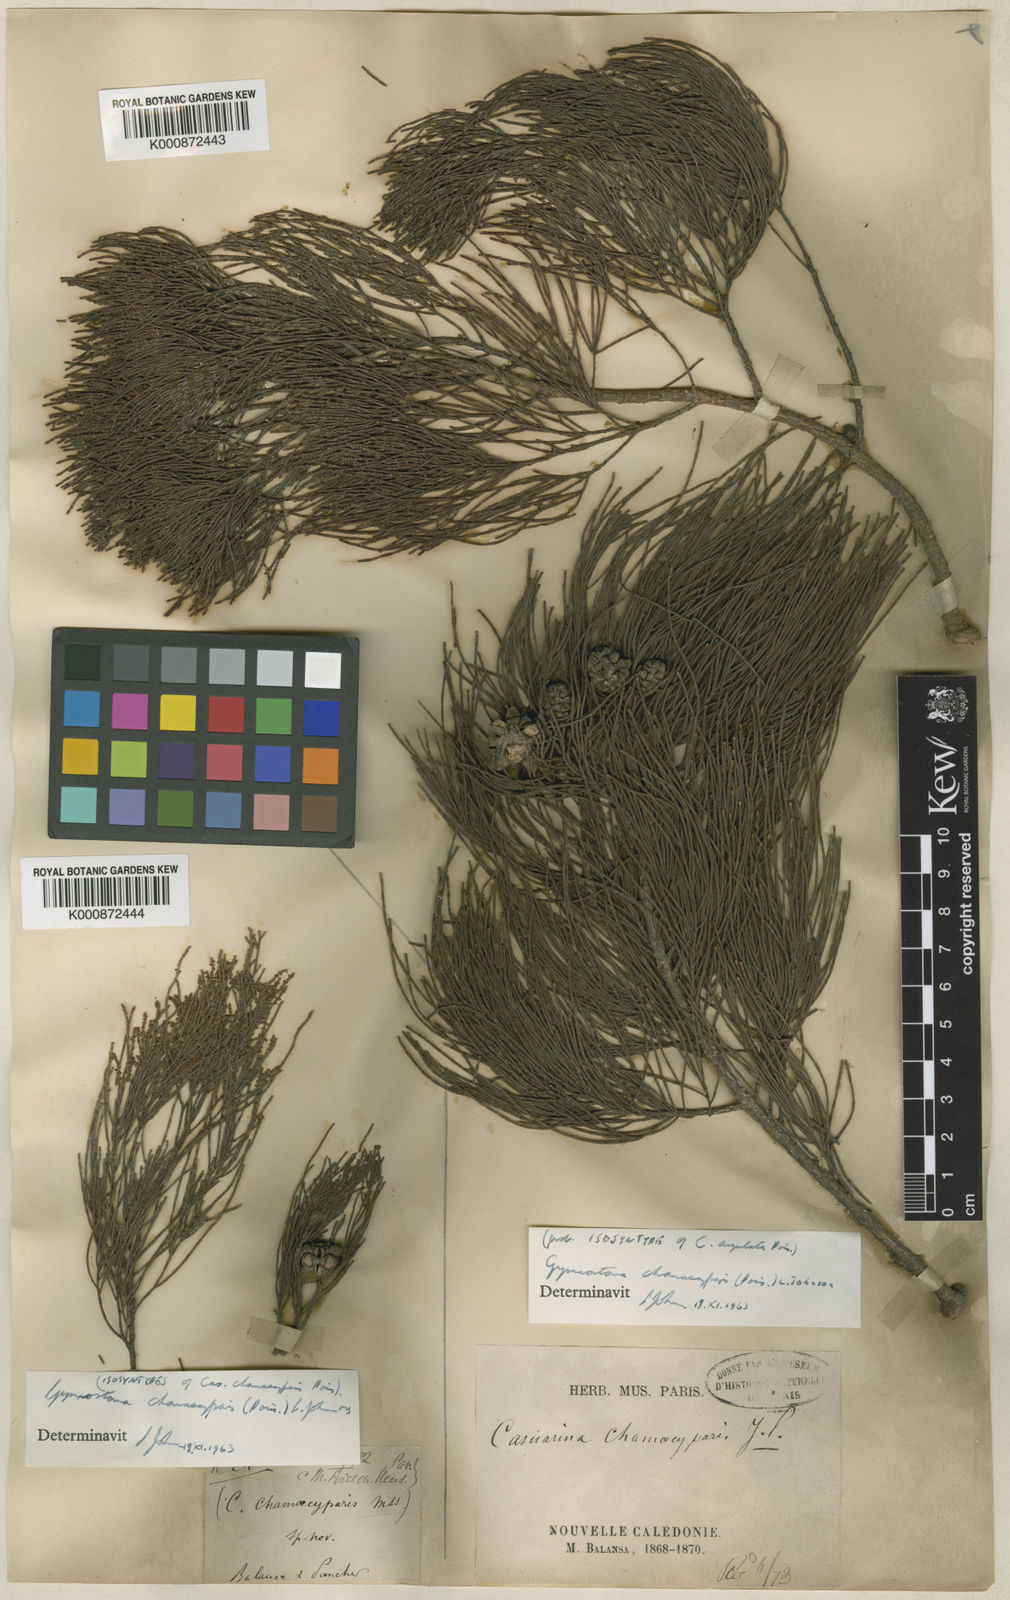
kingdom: Plantae
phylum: Tracheophyta
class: Magnoliopsida
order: Fagales
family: Casuarinaceae
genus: Gymnostoma
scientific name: Gymnostoma chamaecyparis
